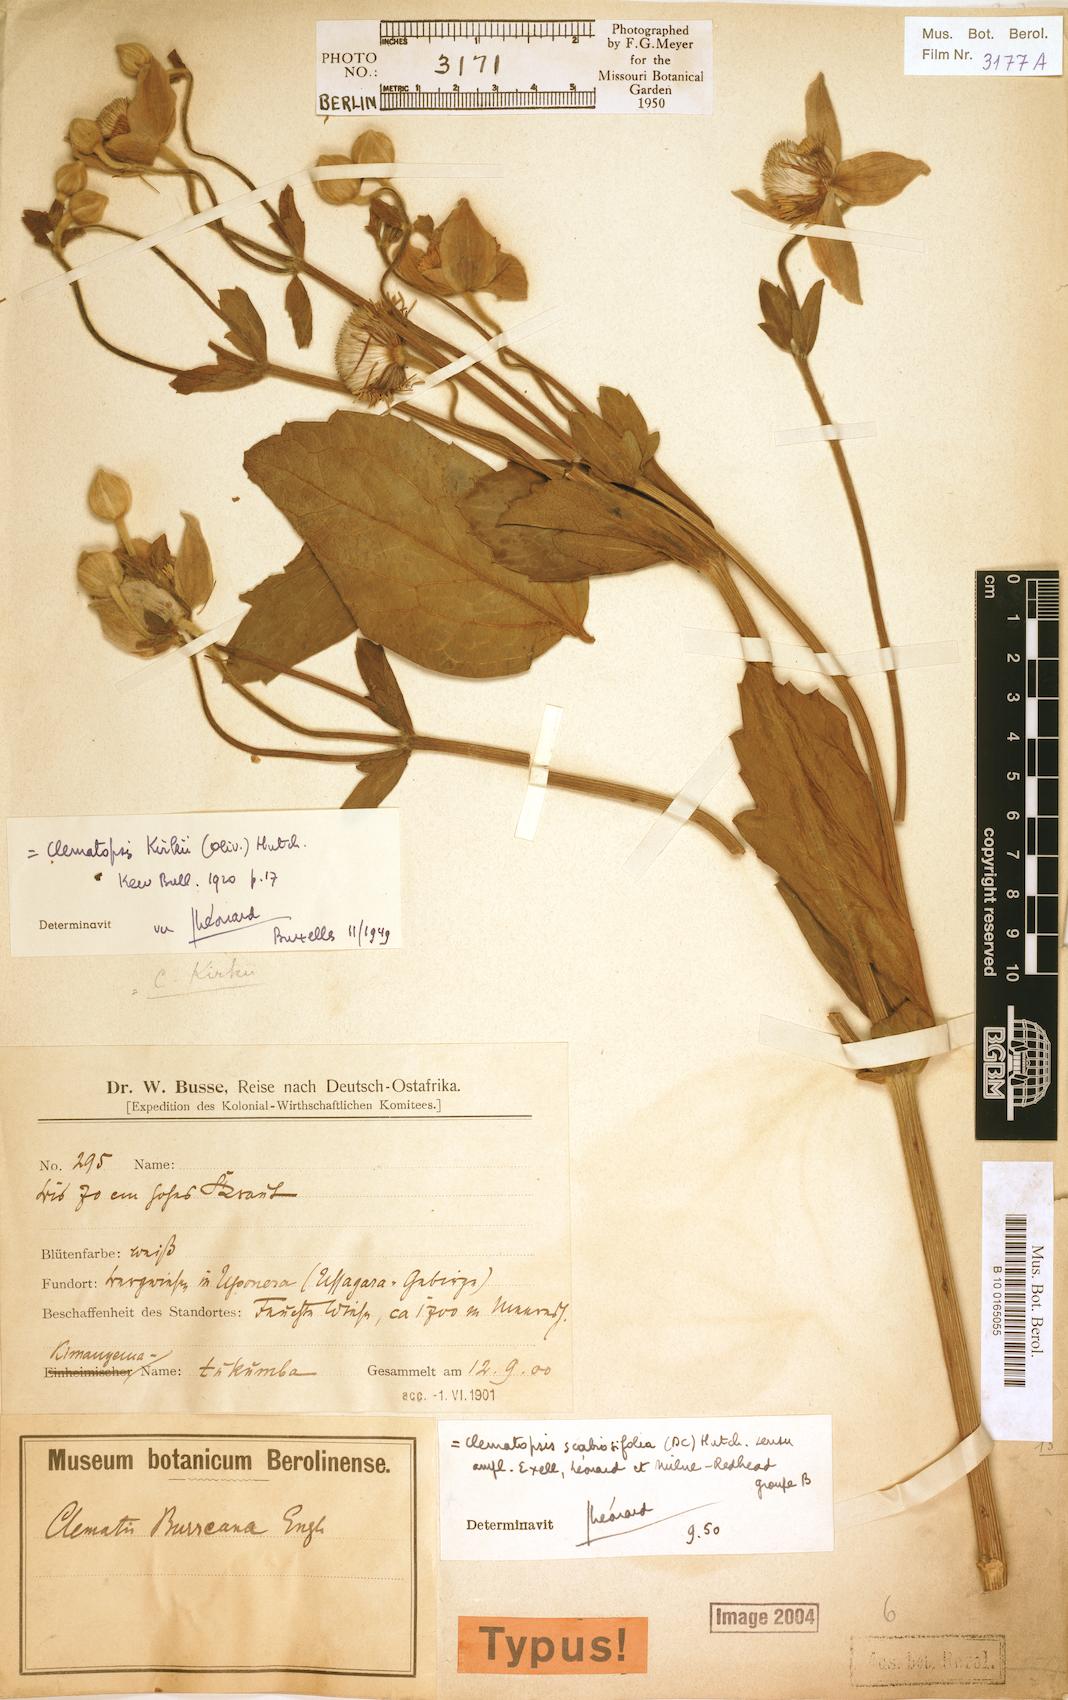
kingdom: Plantae
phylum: Tracheophyta
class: Magnoliopsida
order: Ranunculales
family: Ranunculaceae
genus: Clematis
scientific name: Clematis villosa
